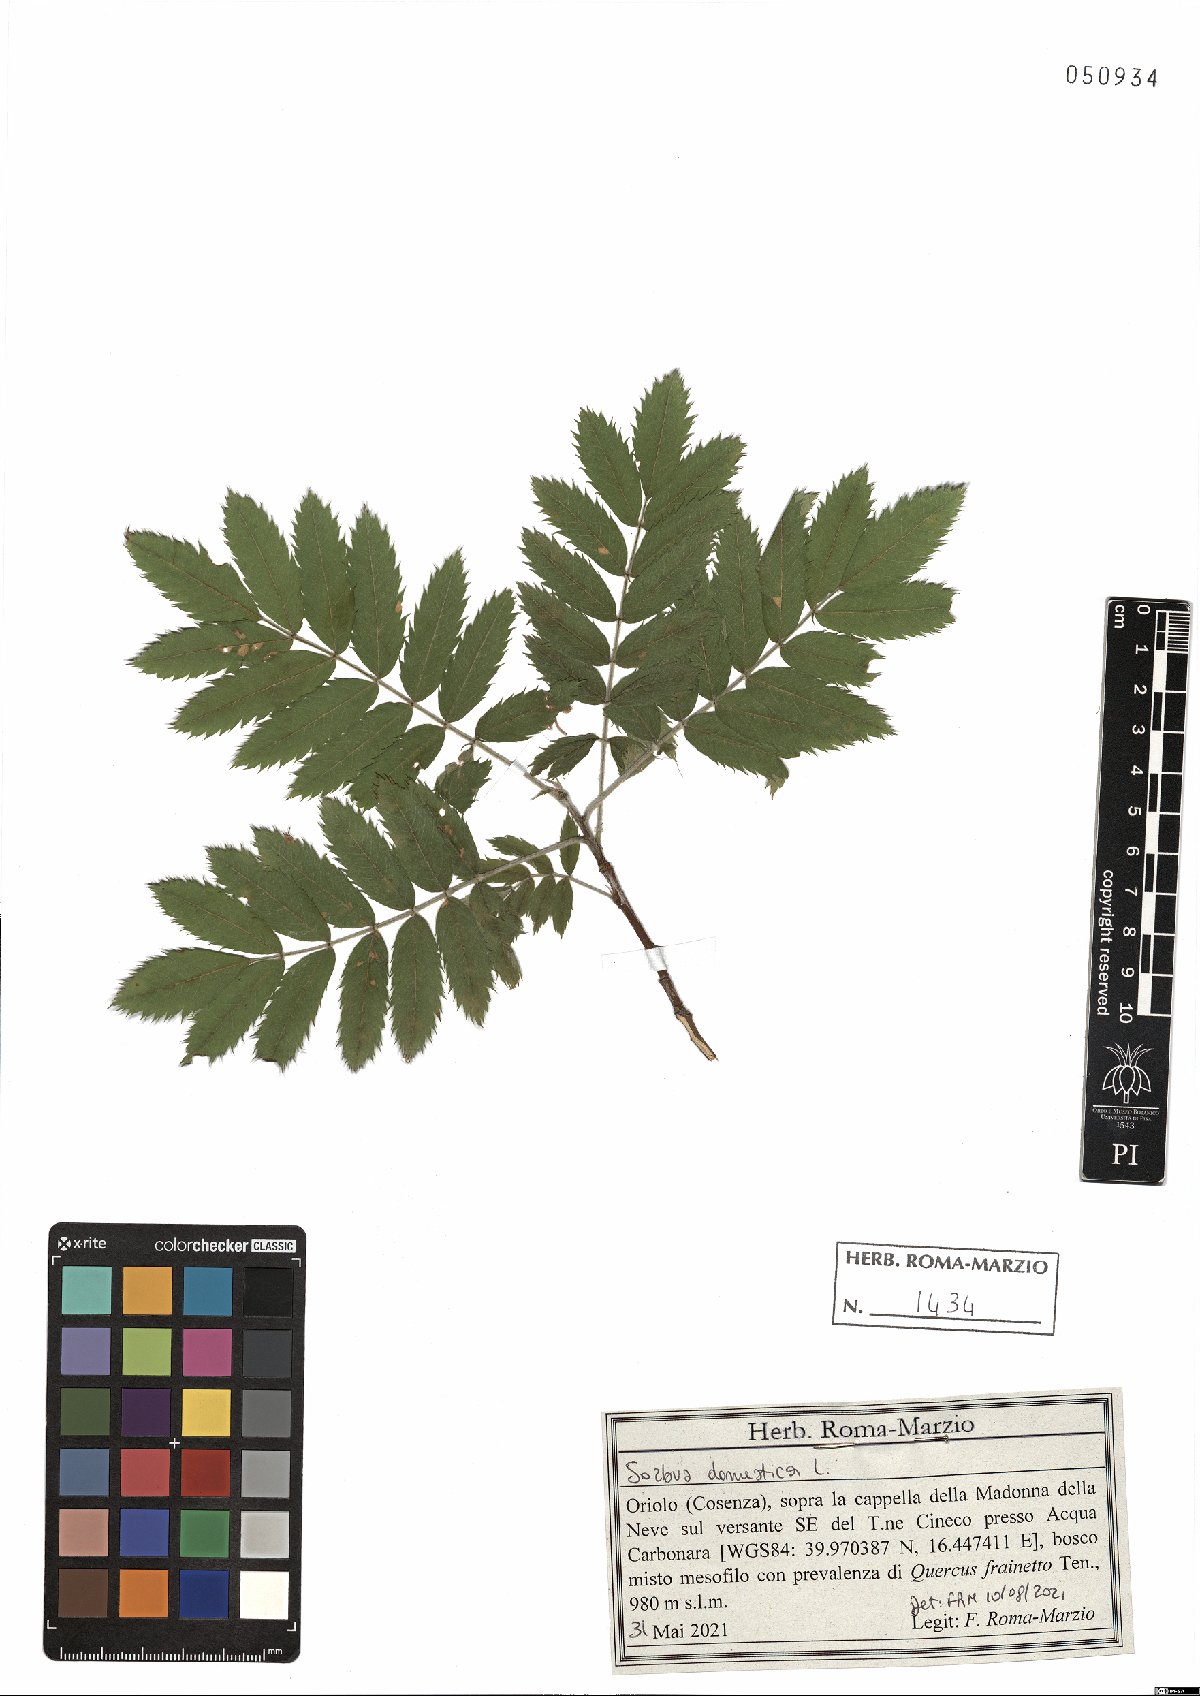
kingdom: Plantae
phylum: Tracheophyta
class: Magnoliopsida
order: Rosales
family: Rosaceae
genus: Cormus
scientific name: Cormus domestica
